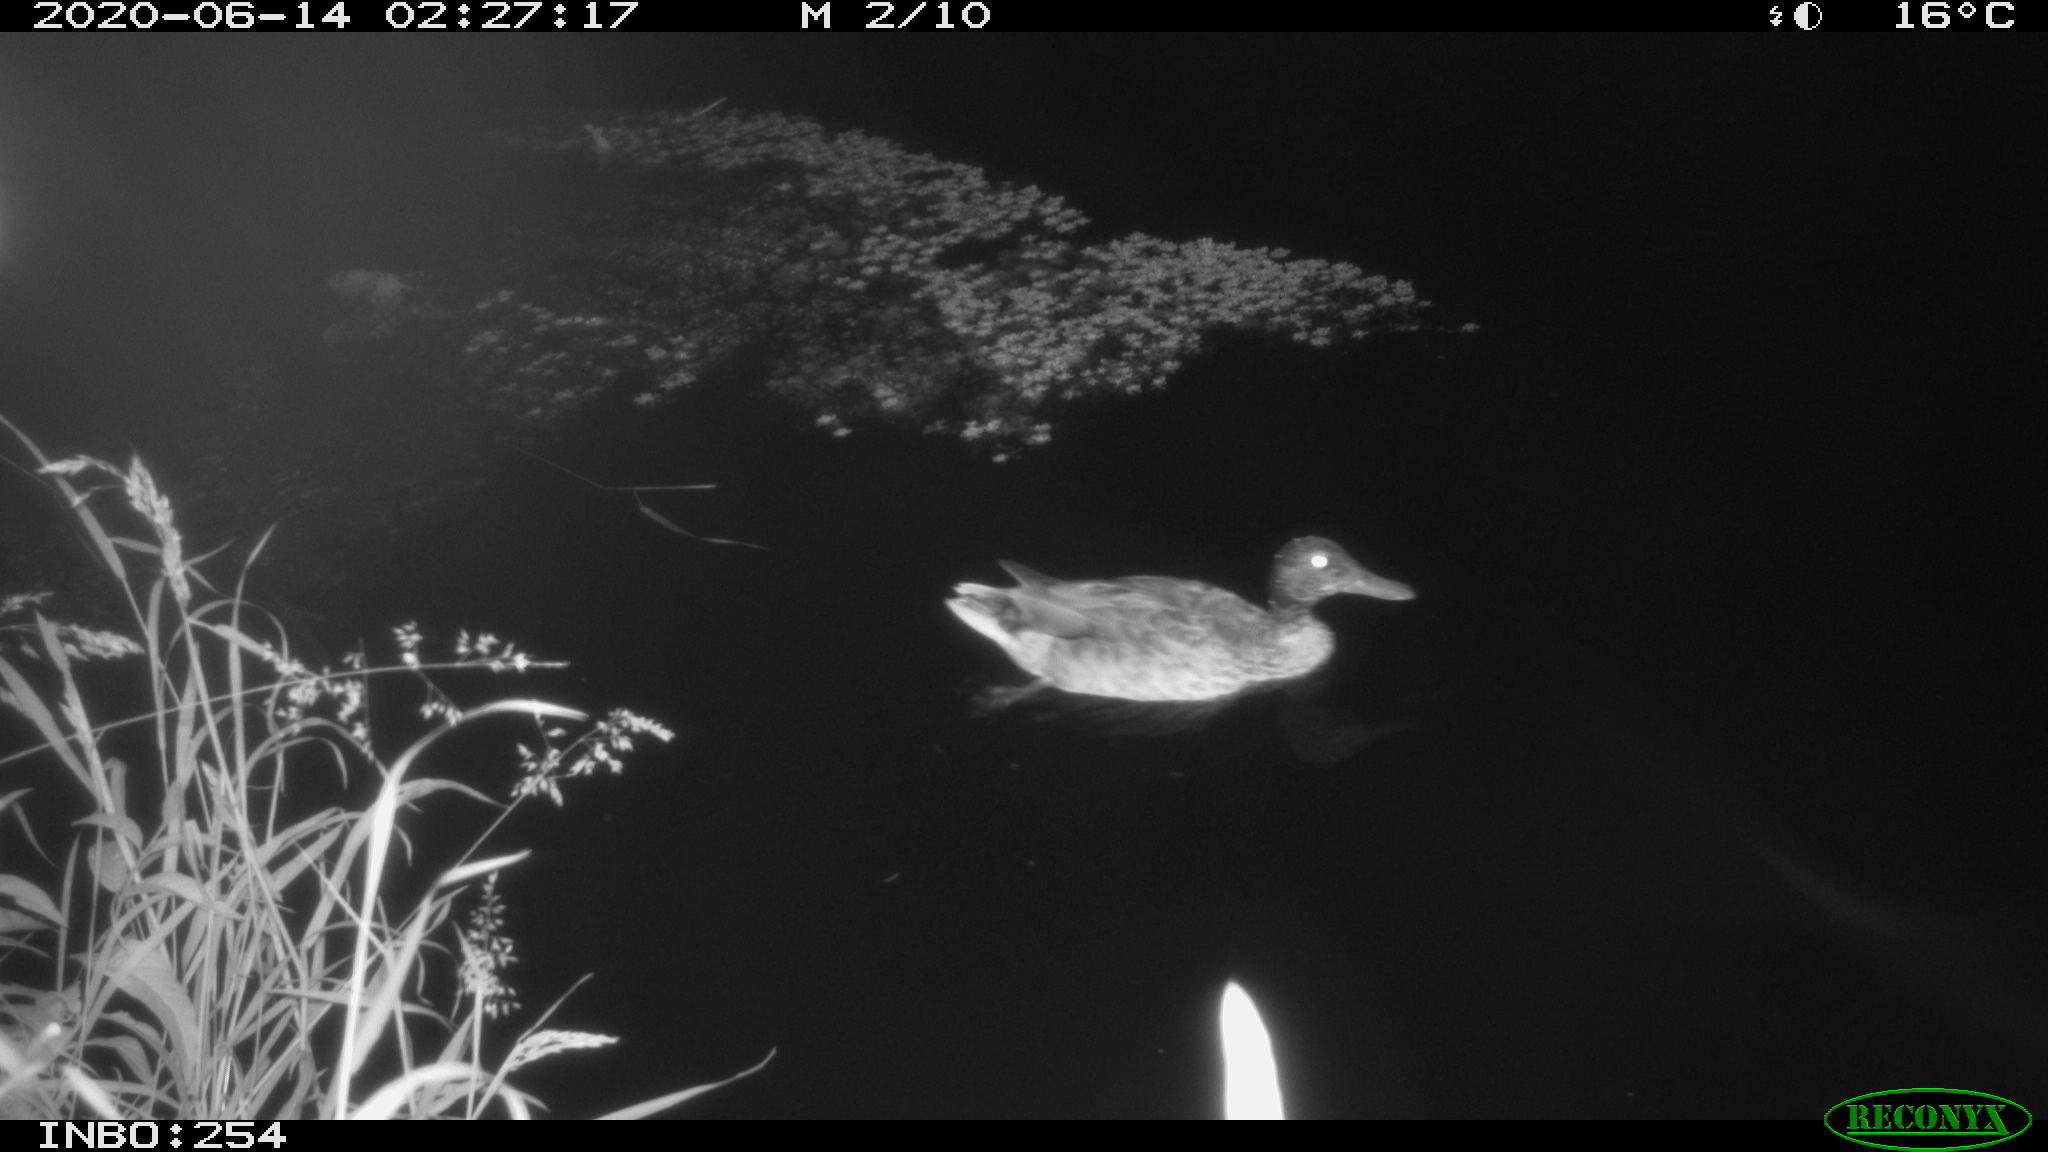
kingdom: Animalia
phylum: Chordata
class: Aves
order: Anseriformes
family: Anatidae
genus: Anas
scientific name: Anas platyrhynchos
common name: Mallard
